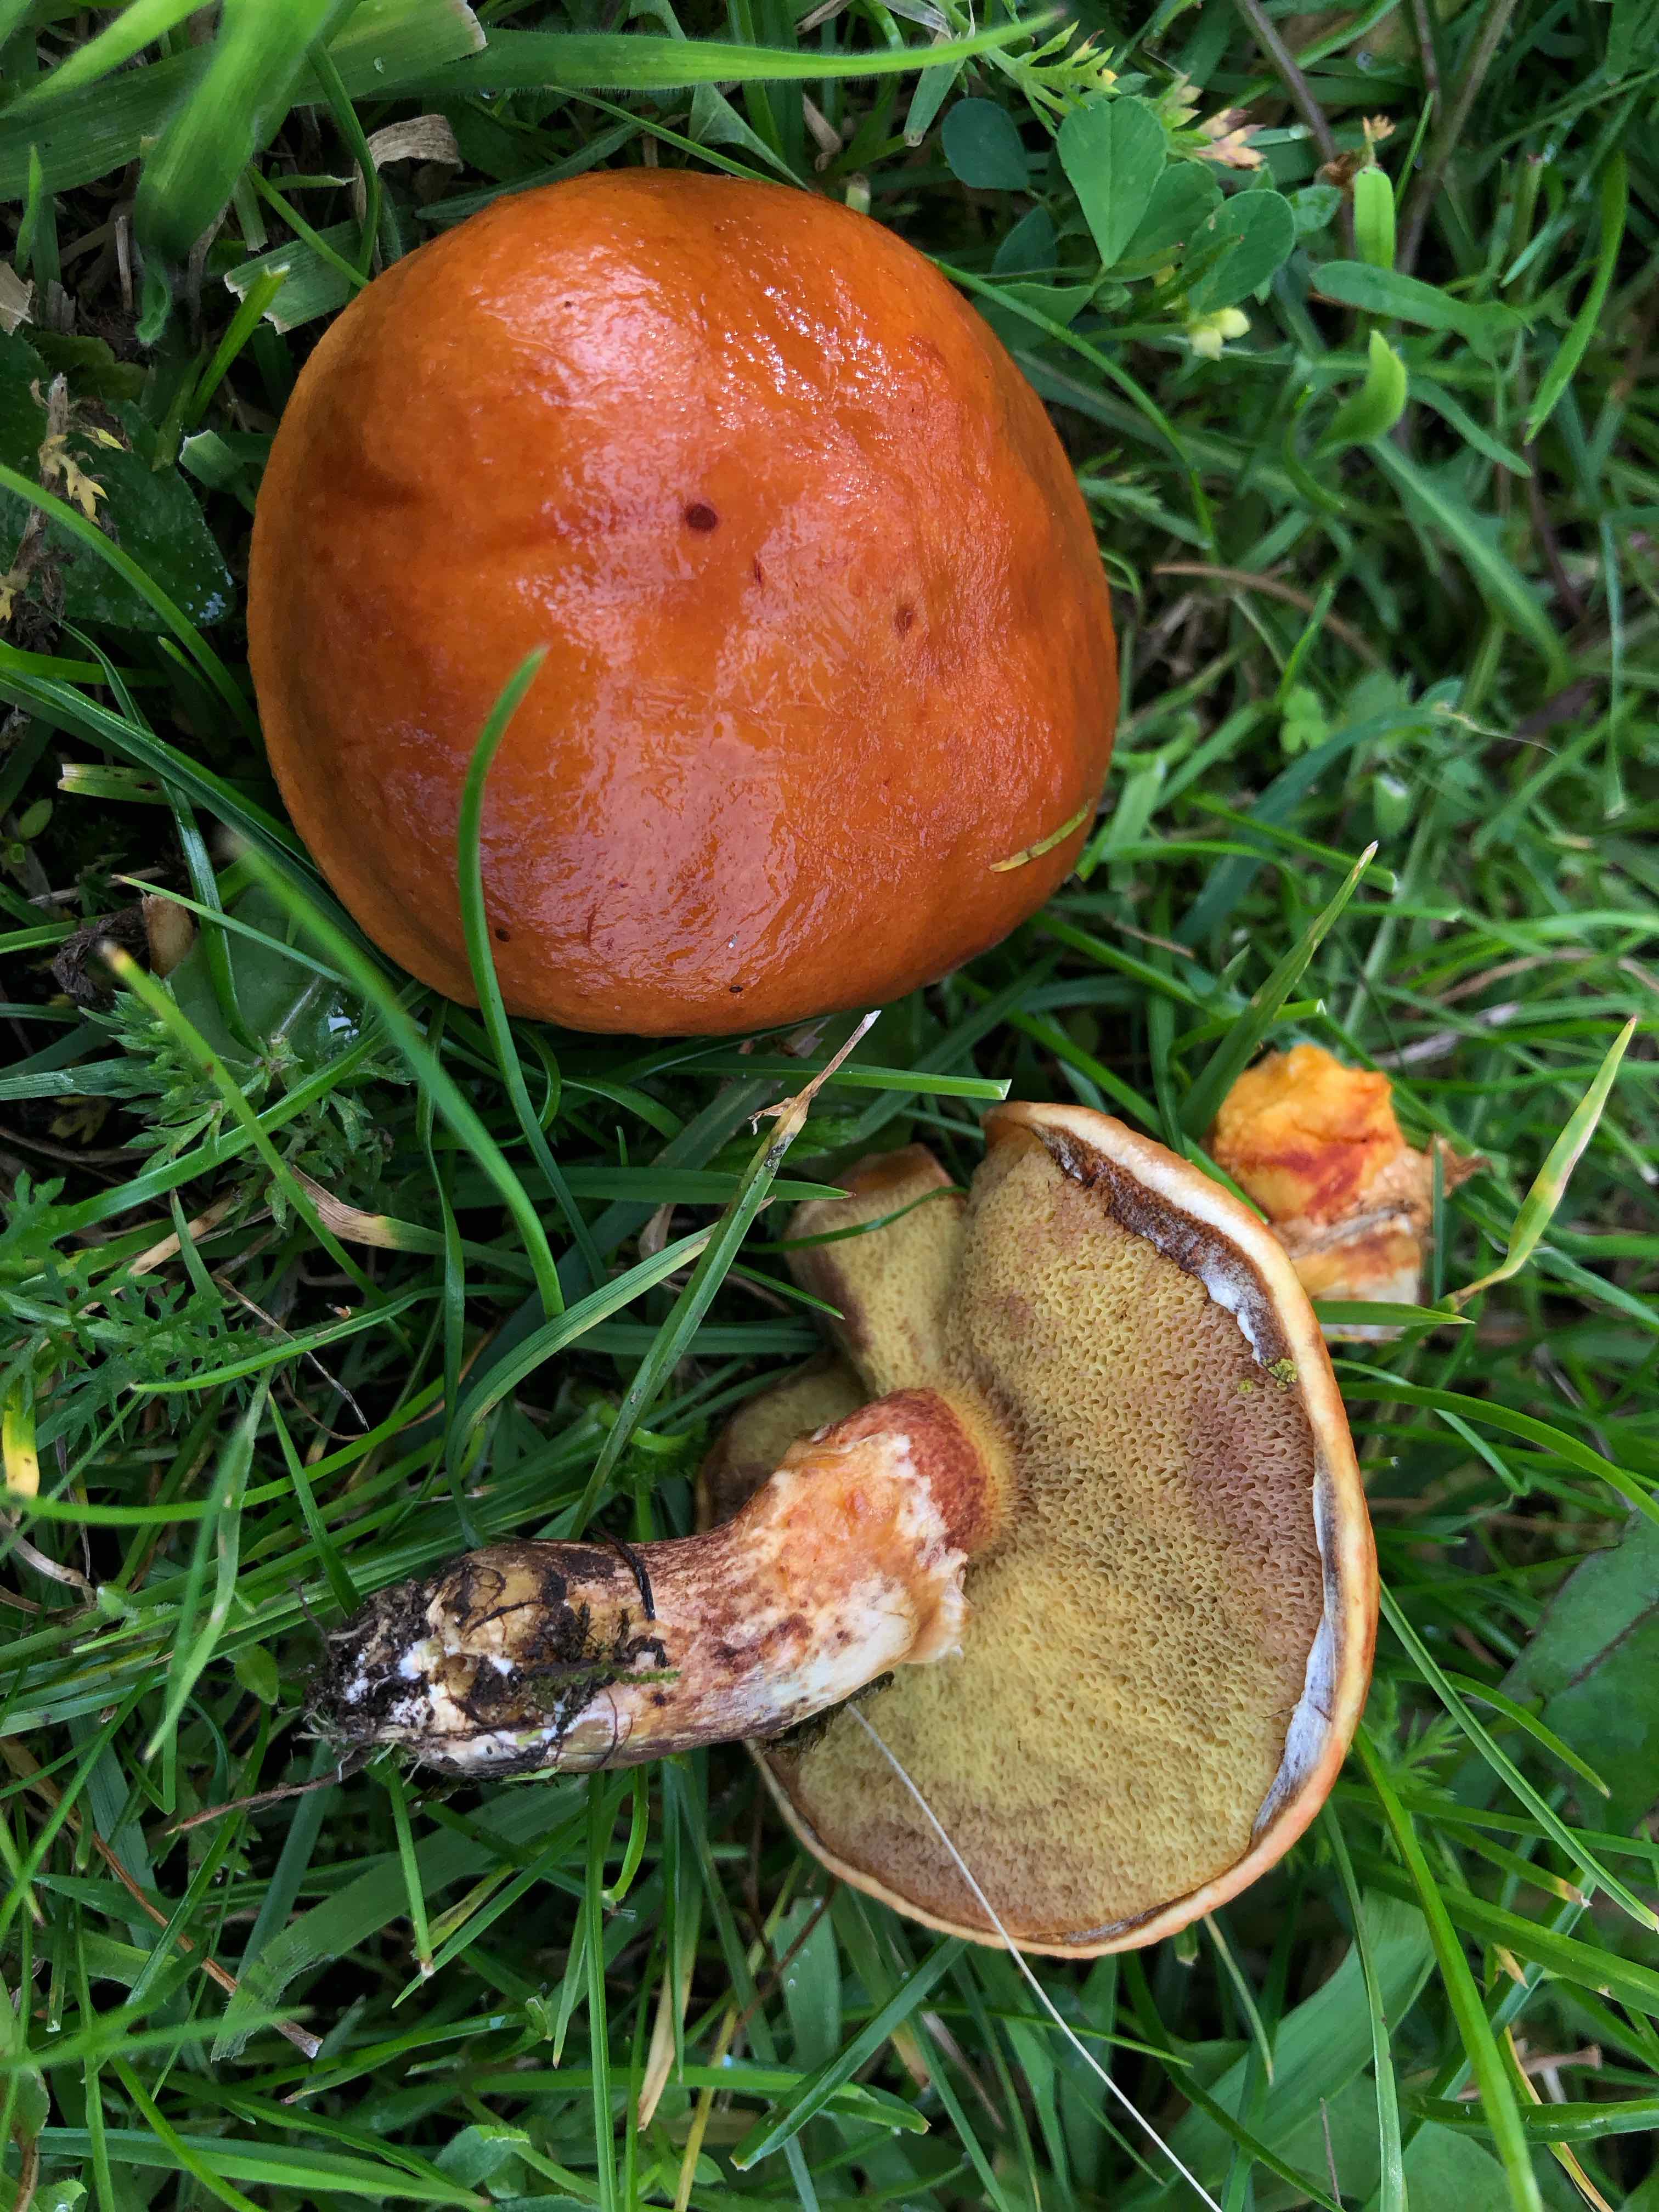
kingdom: Fungi
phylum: Basidiomycota
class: Agaricomycetes
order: Boletales
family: Suillaceae
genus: Suillus
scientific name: Suillus grevillei
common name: lærke-slimrørhat
